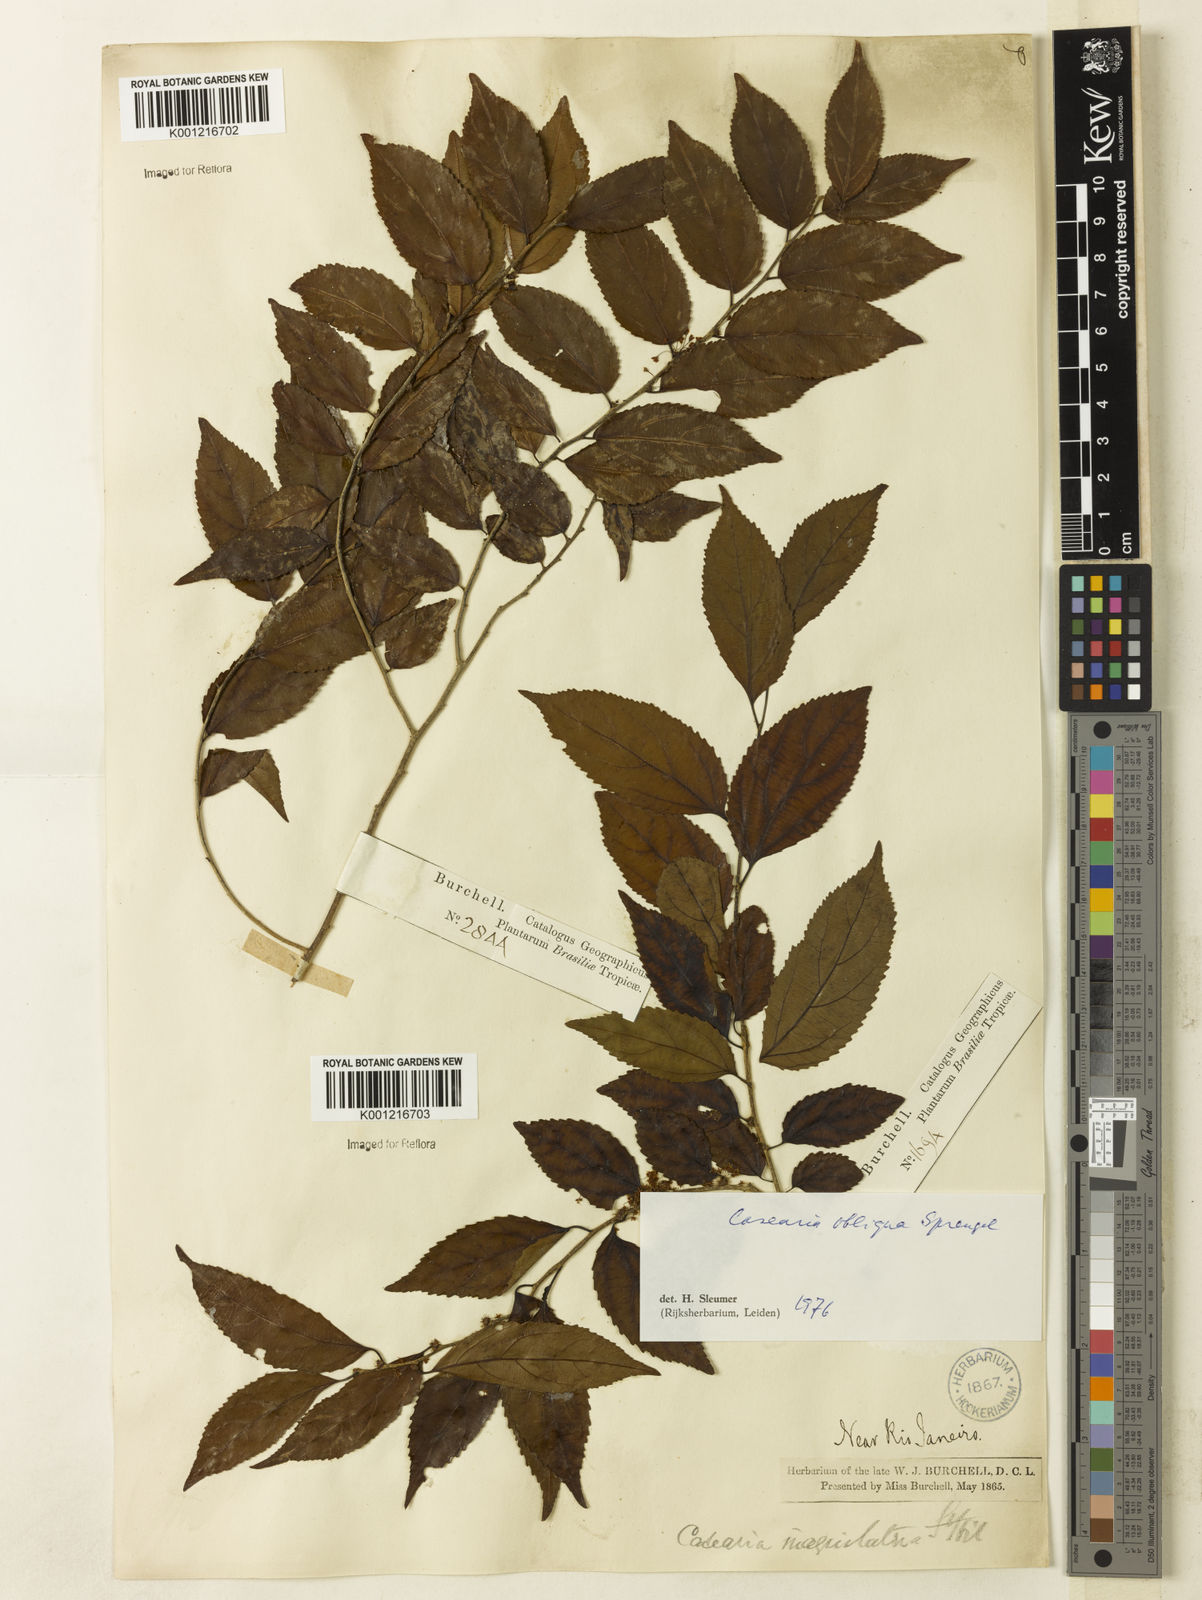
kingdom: Plantae
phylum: Tracheophyta
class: Magnoliopsida
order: Malpighiales
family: Salicaceae
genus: Casearia
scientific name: Casearia obliqua
